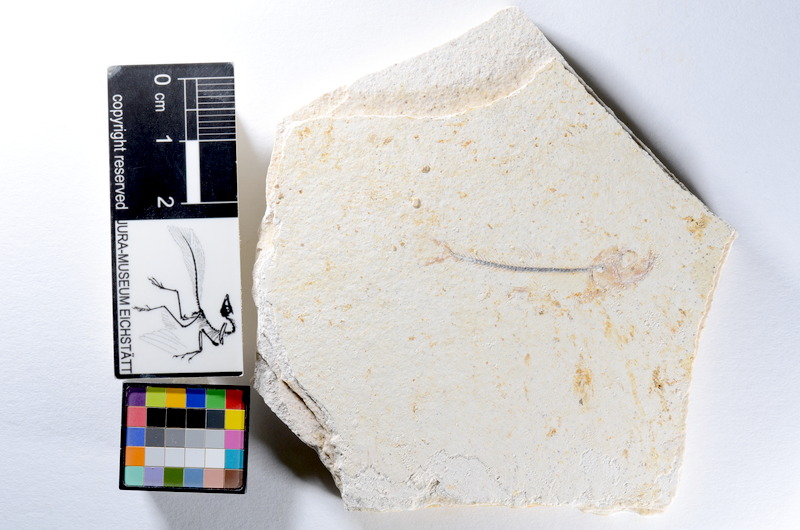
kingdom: Animalia
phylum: Chordata
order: Salmoniformes
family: Orthogonikleithridae
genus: Orthogonikleithrus
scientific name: Orthogonikleithrus hoelli
